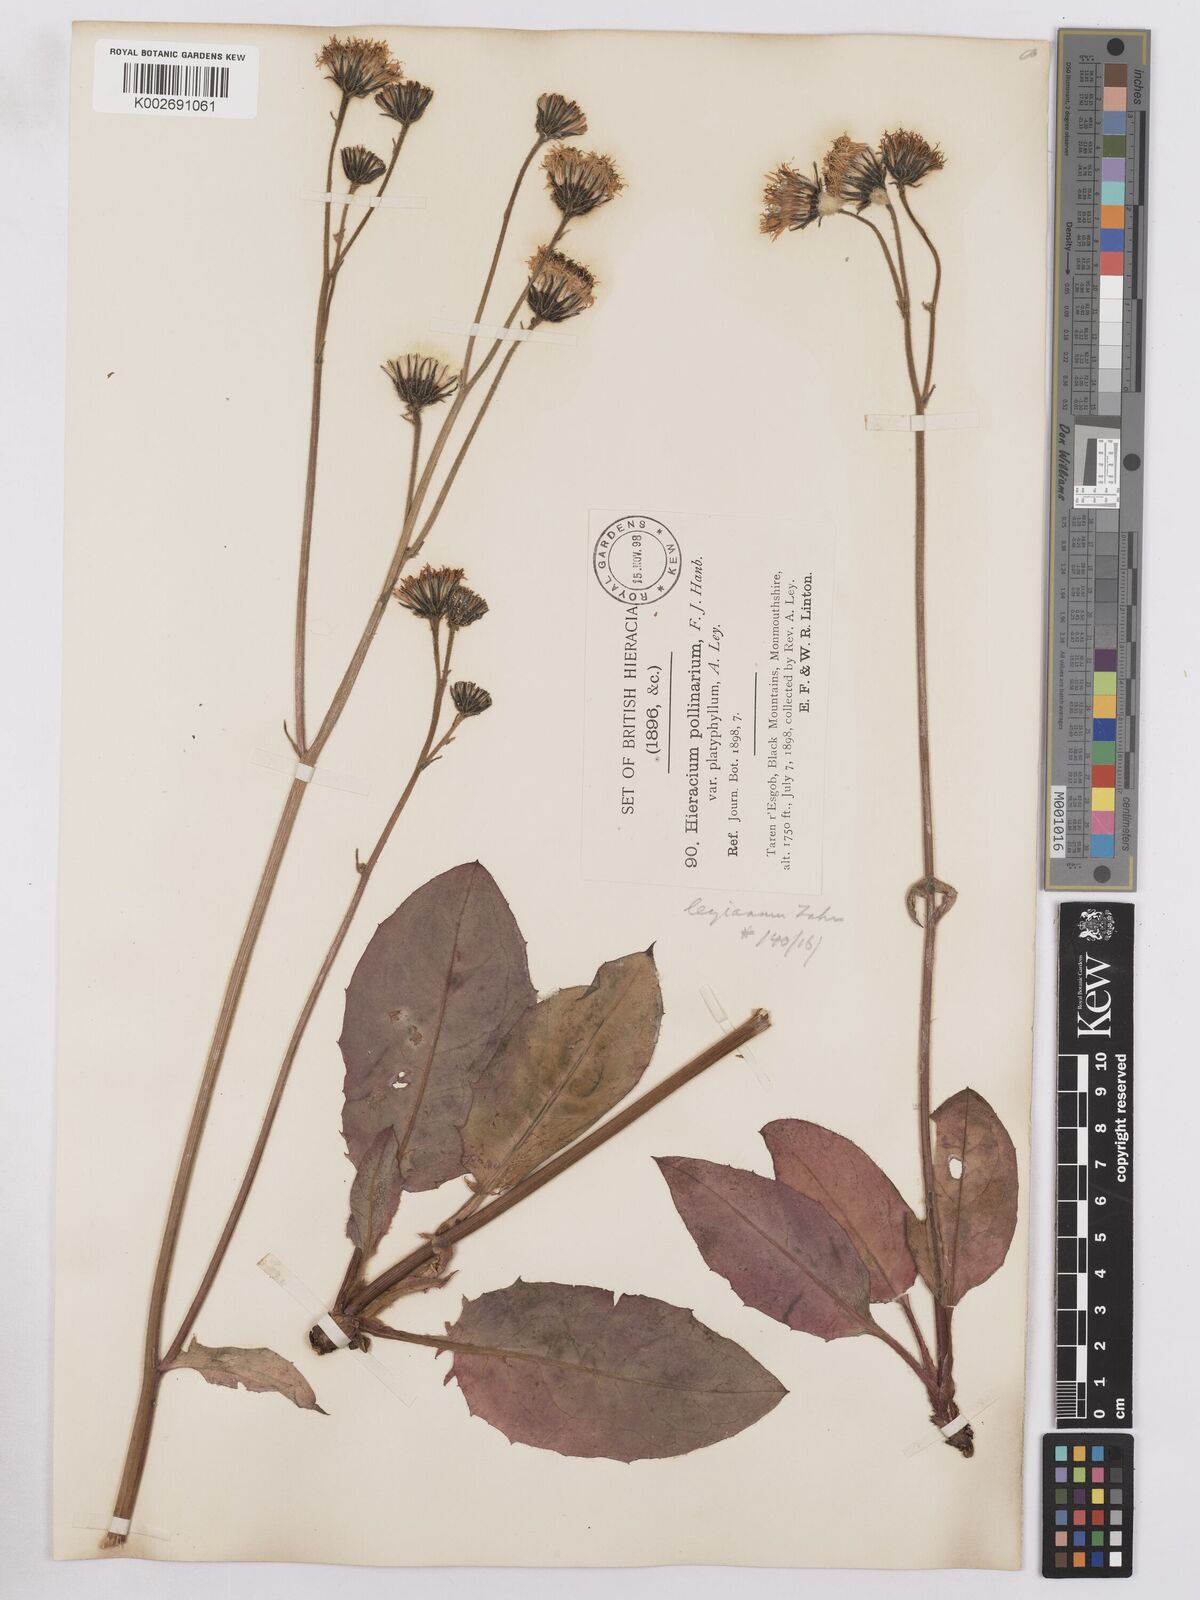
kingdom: Plantae
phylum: Tracheophyta
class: Magnoliopsida
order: Asterales
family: Asteraceae
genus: Hieracium
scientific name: Hieracium leyanum
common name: Fat-leaved hawkweed
